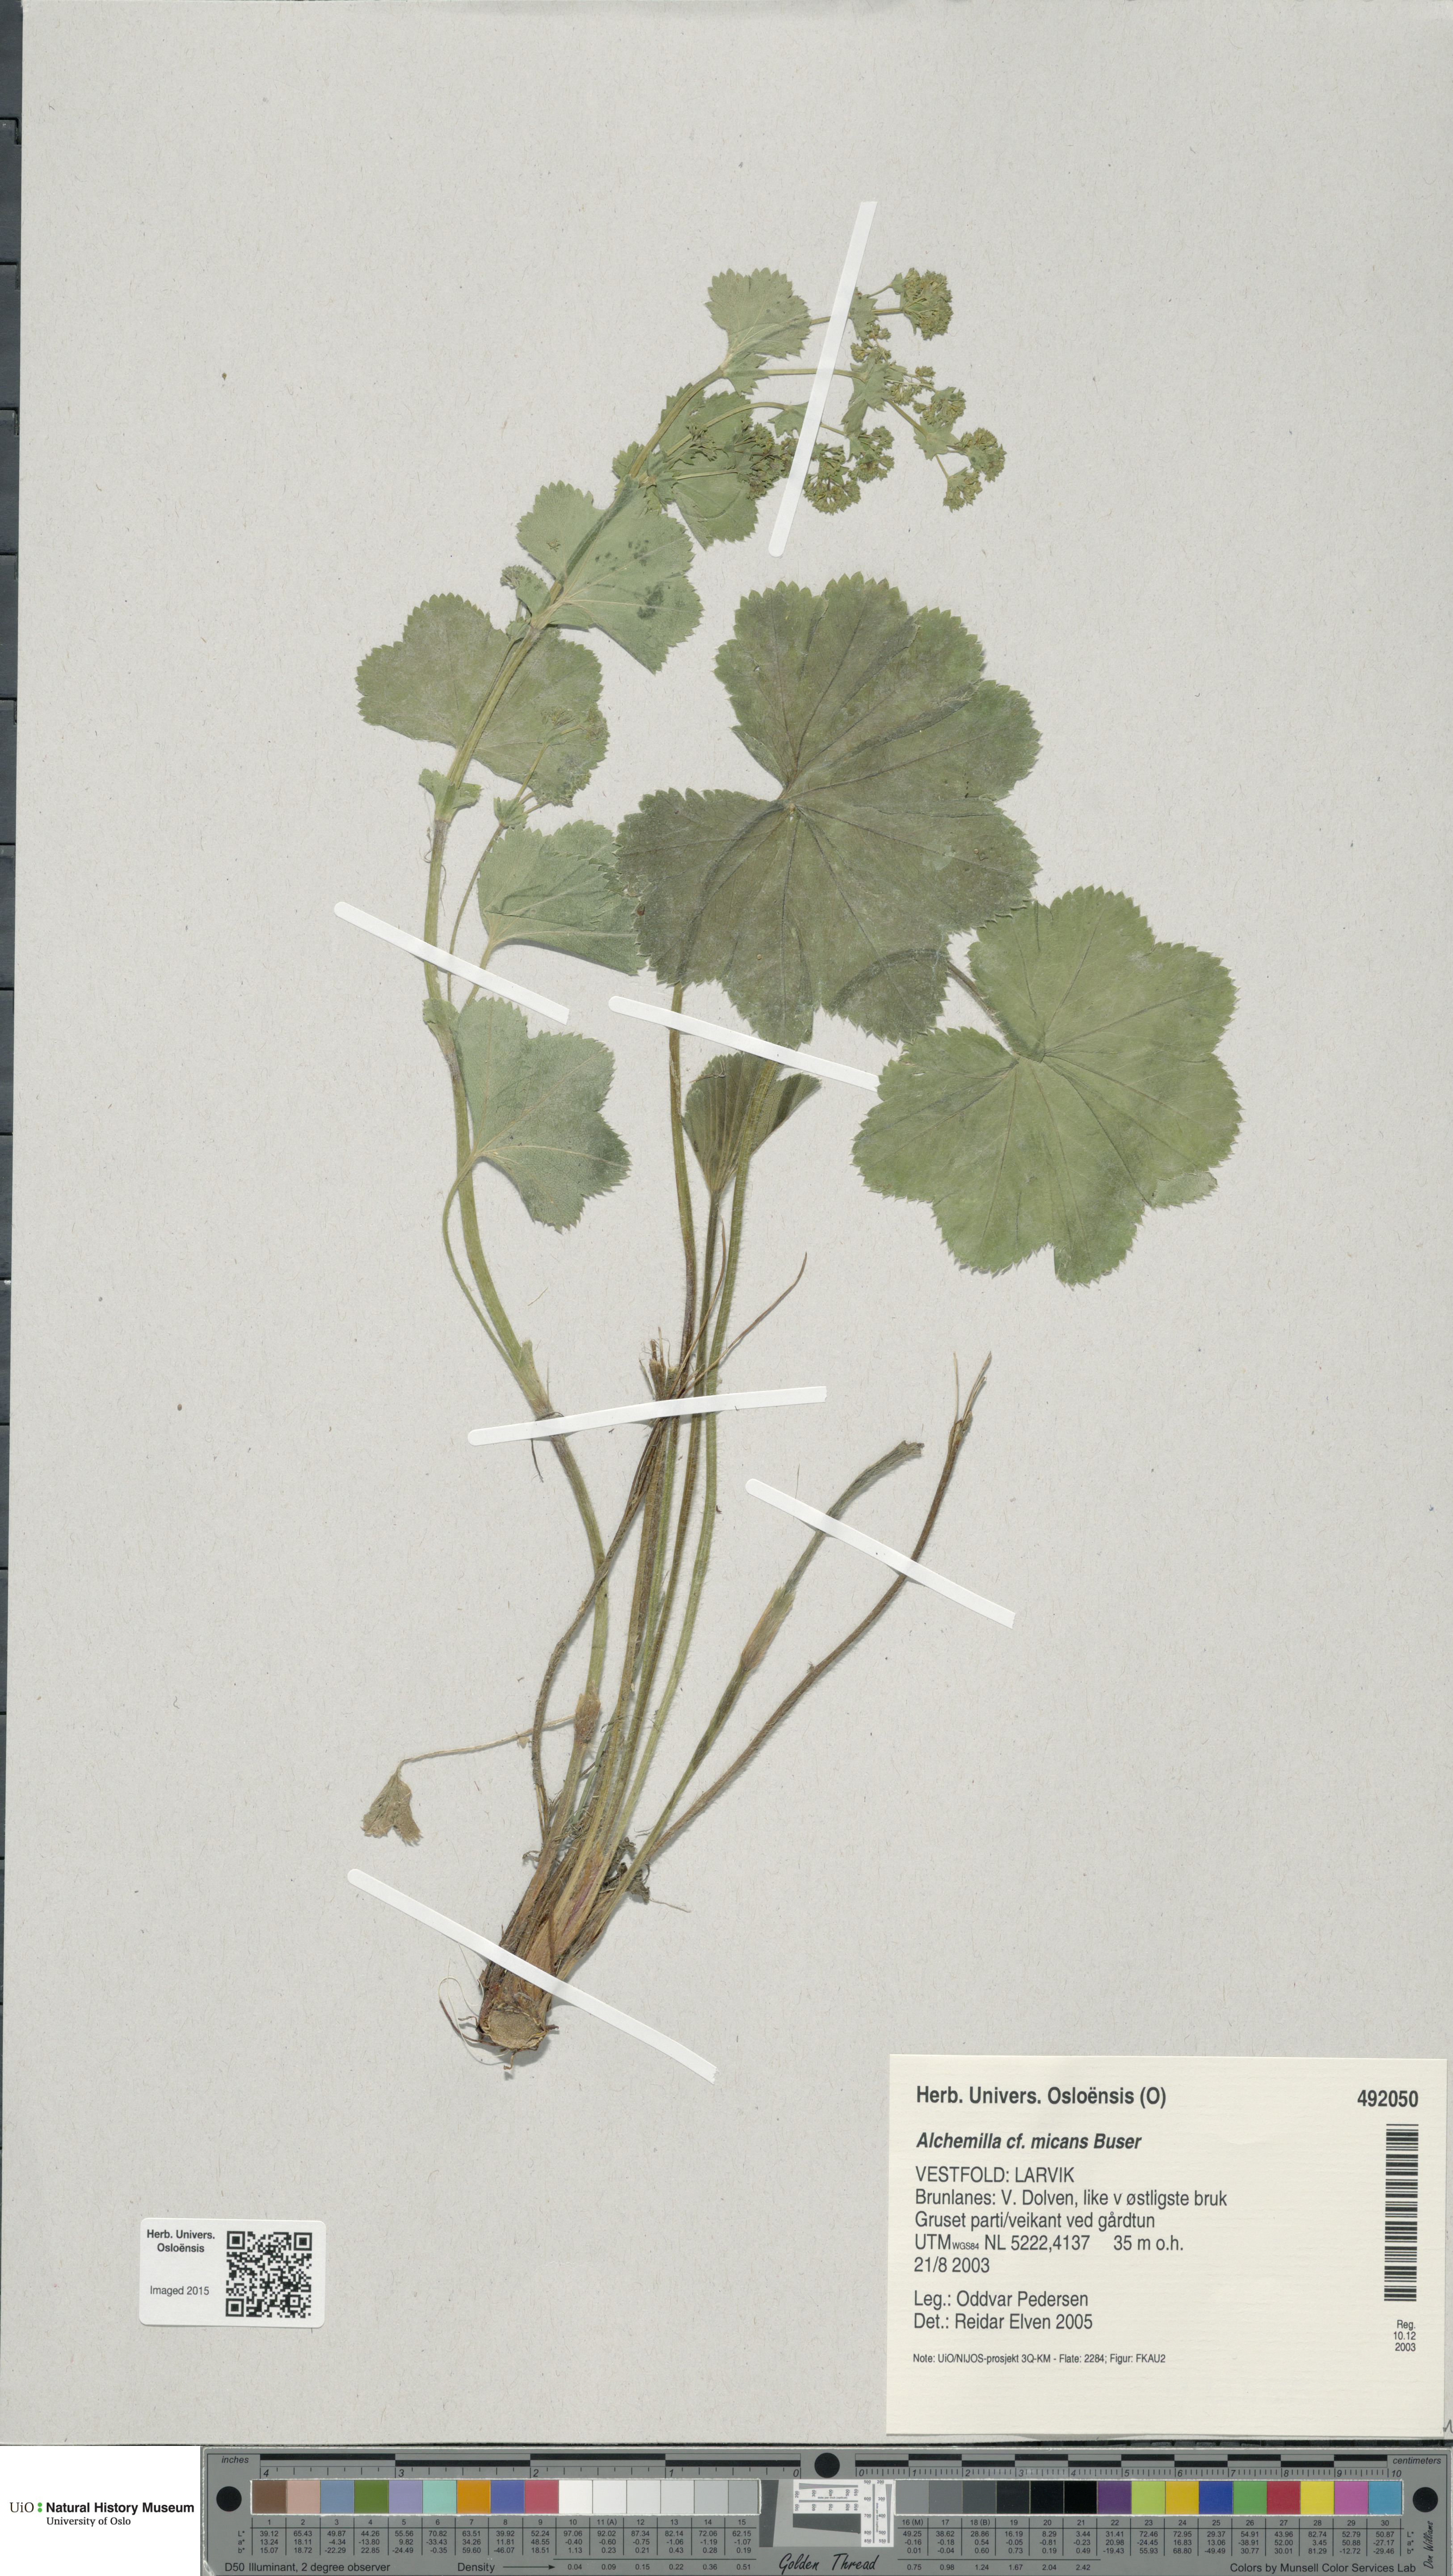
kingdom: Plantae
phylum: Tracheophyta
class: Magnoliopsida
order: Rosales
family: Rosaceae
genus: Alchemilla
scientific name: Alchemilla micans
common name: Gleaming lady's mantle
